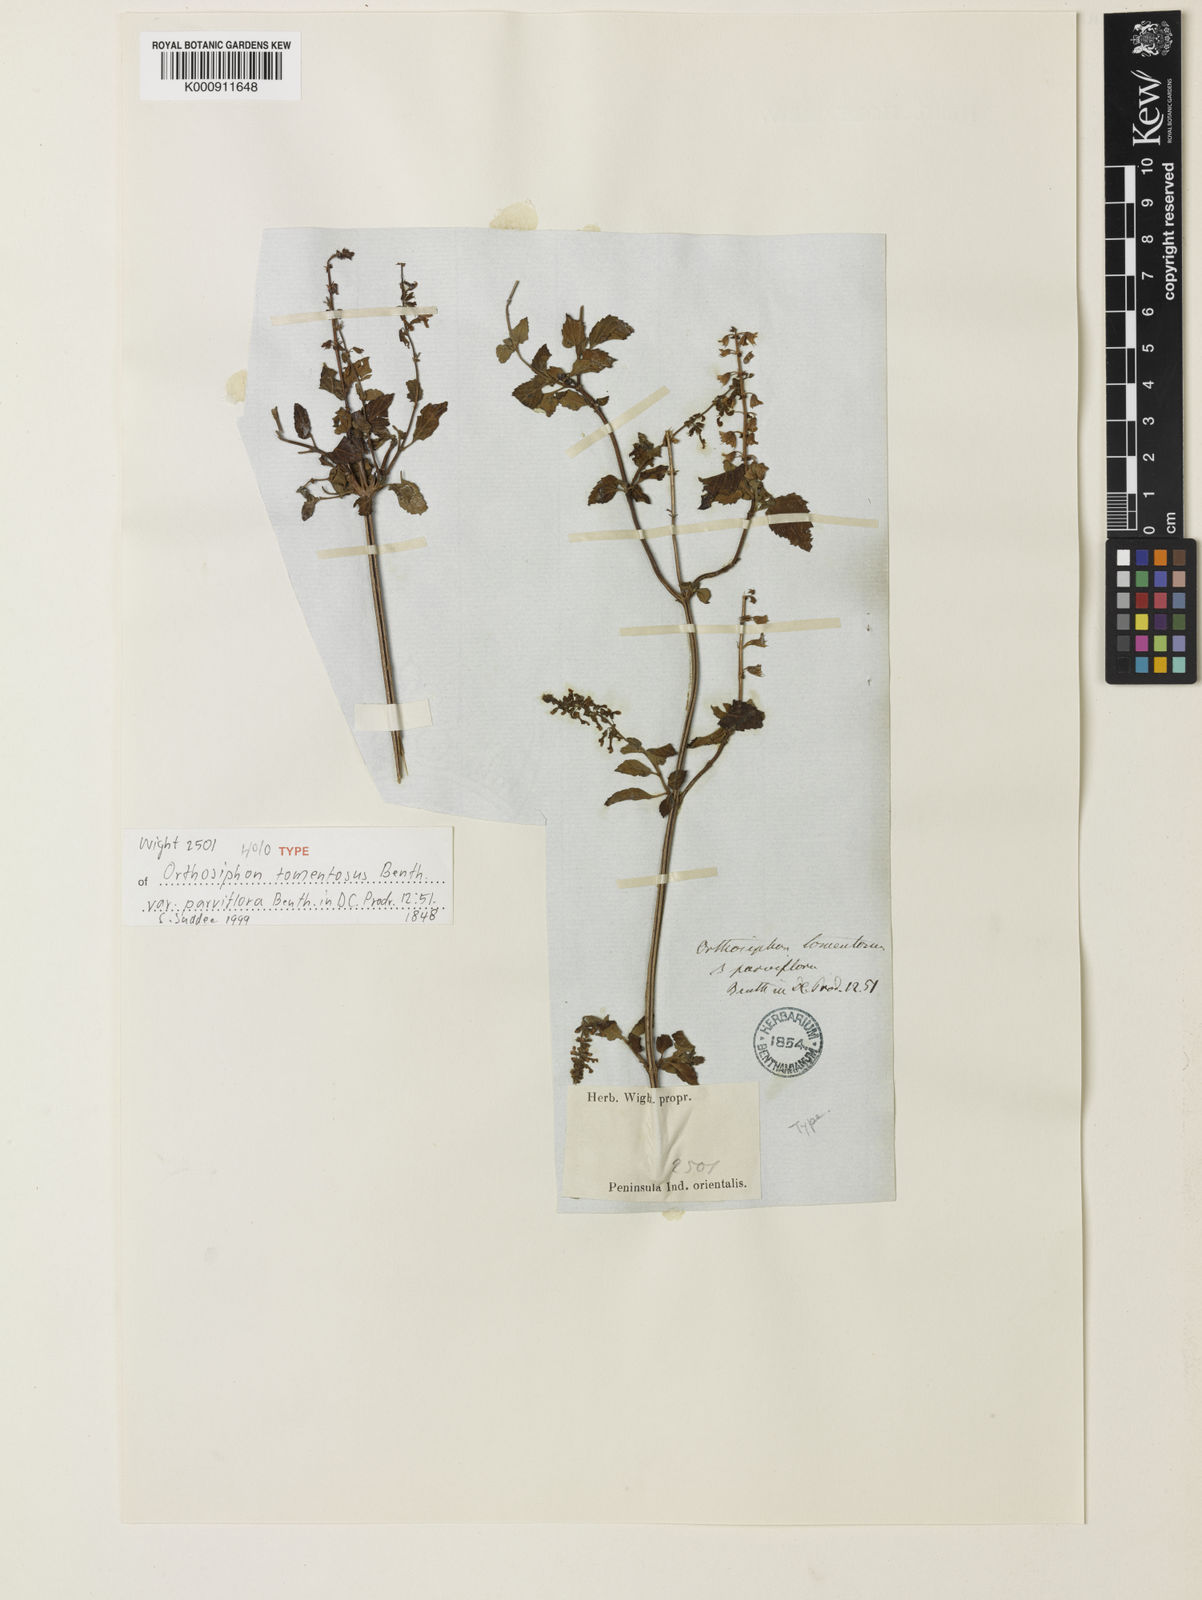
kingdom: Plantae
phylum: Tracheophyta
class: Magnoliopsida
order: Lamiales
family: Lamiaceae
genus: Orthosiphon
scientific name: Orthosiphon thymiflorus
